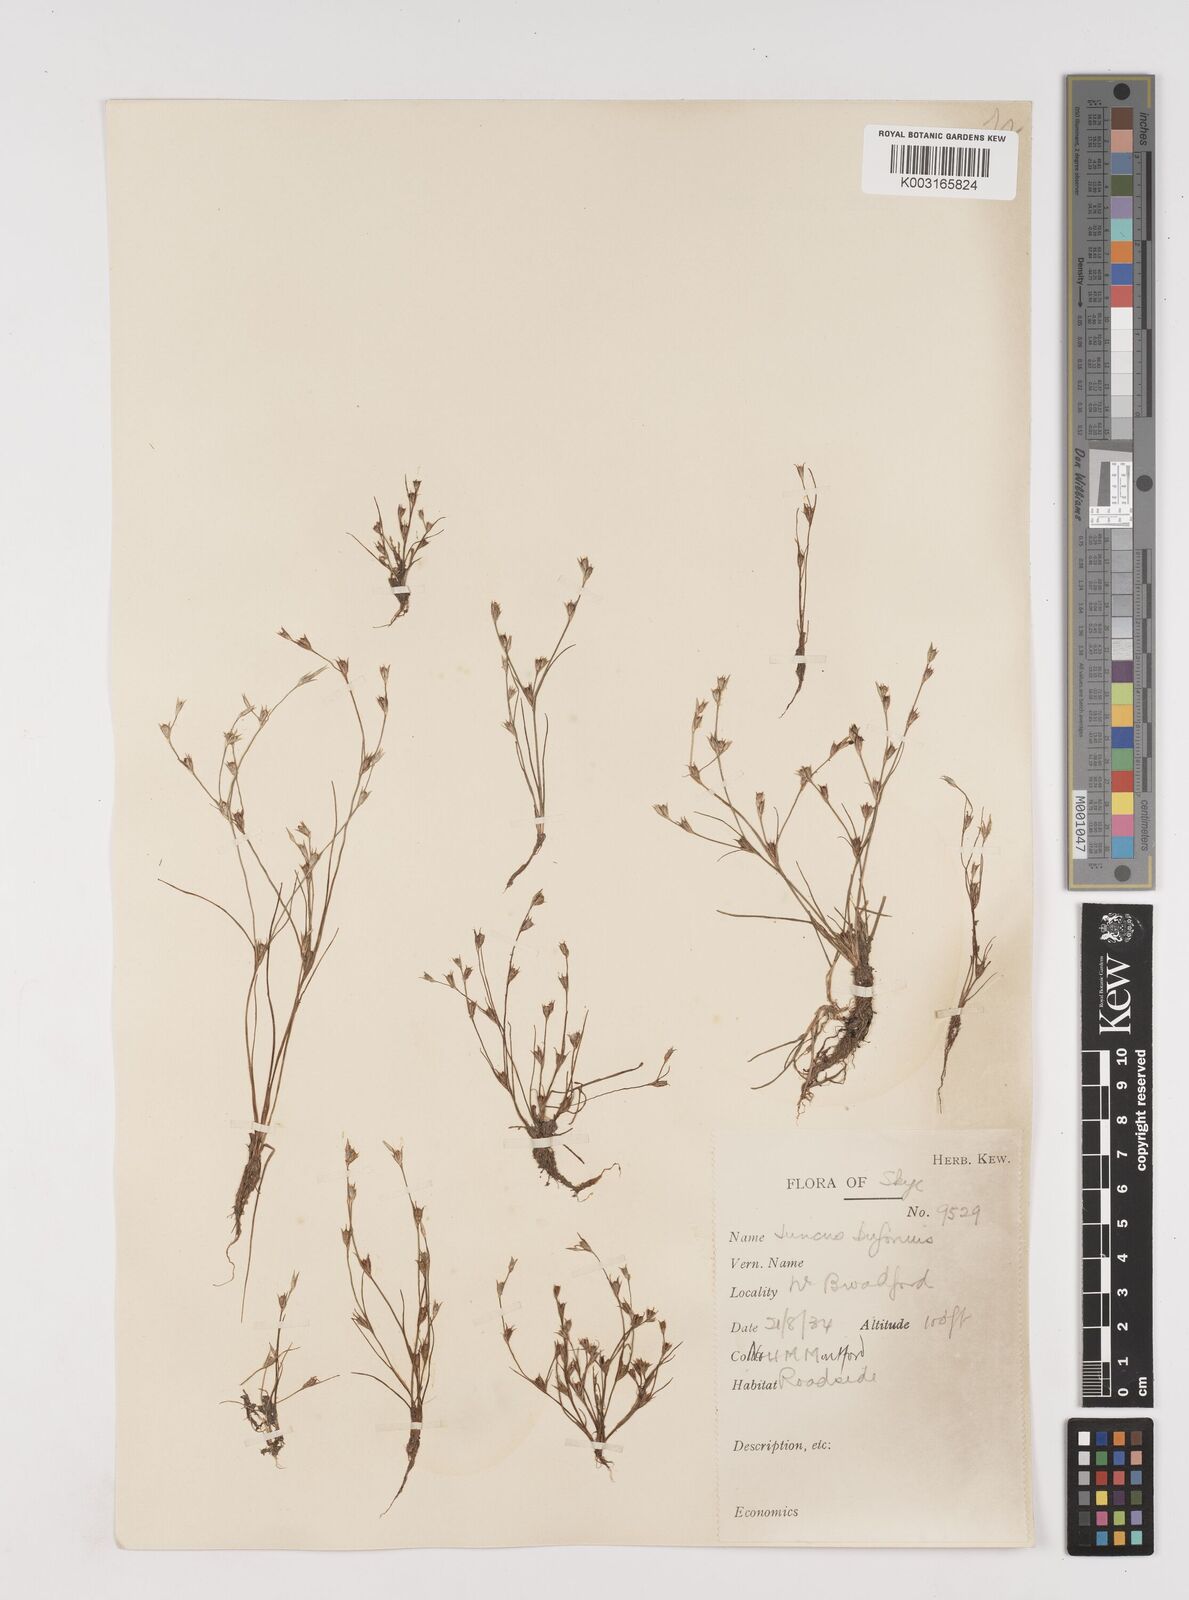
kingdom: Plantae
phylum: Tracheophyta
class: Liliopsida
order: Poales
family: Juncaceae
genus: Juncus
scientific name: Juncus bufonius
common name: Toad rush
